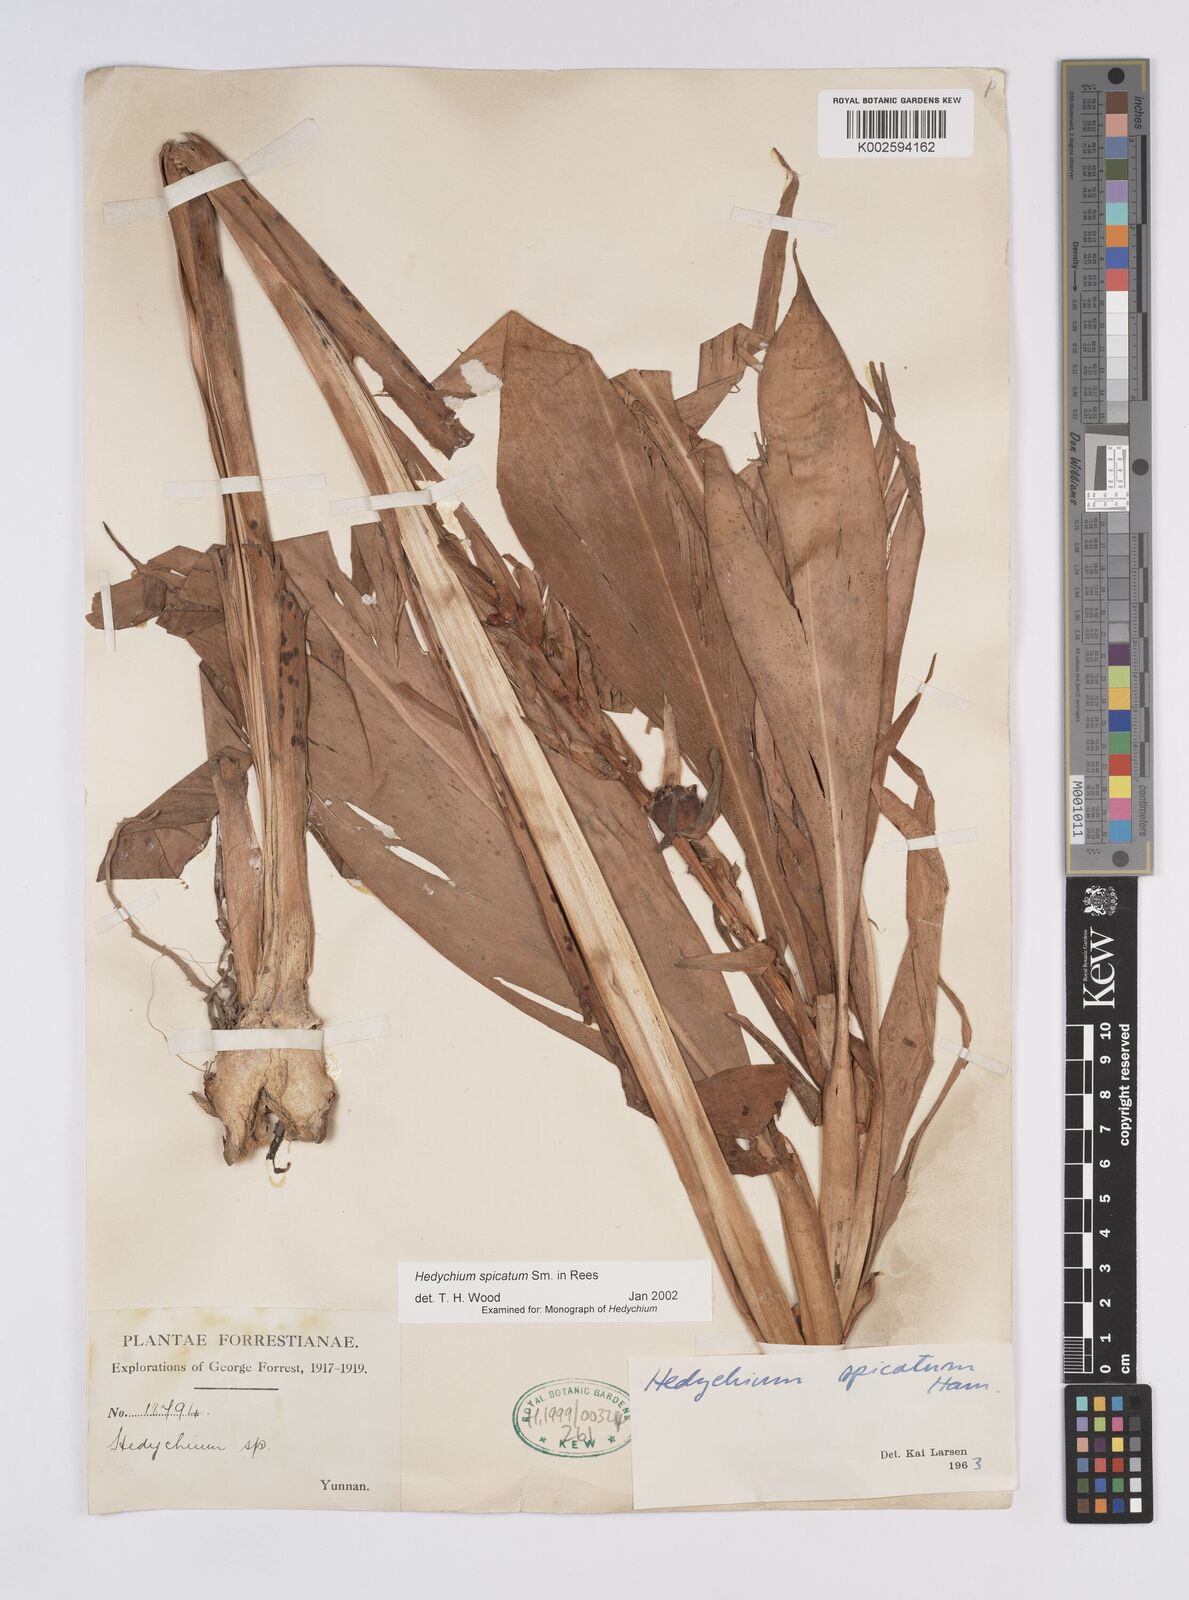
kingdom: Plantae
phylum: Tracheophyta
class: Liliopsida
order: Zingiberales
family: Zingiberaceae
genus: Hedychium
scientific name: Hedychium spicatum
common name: Spiked ginger-lily
